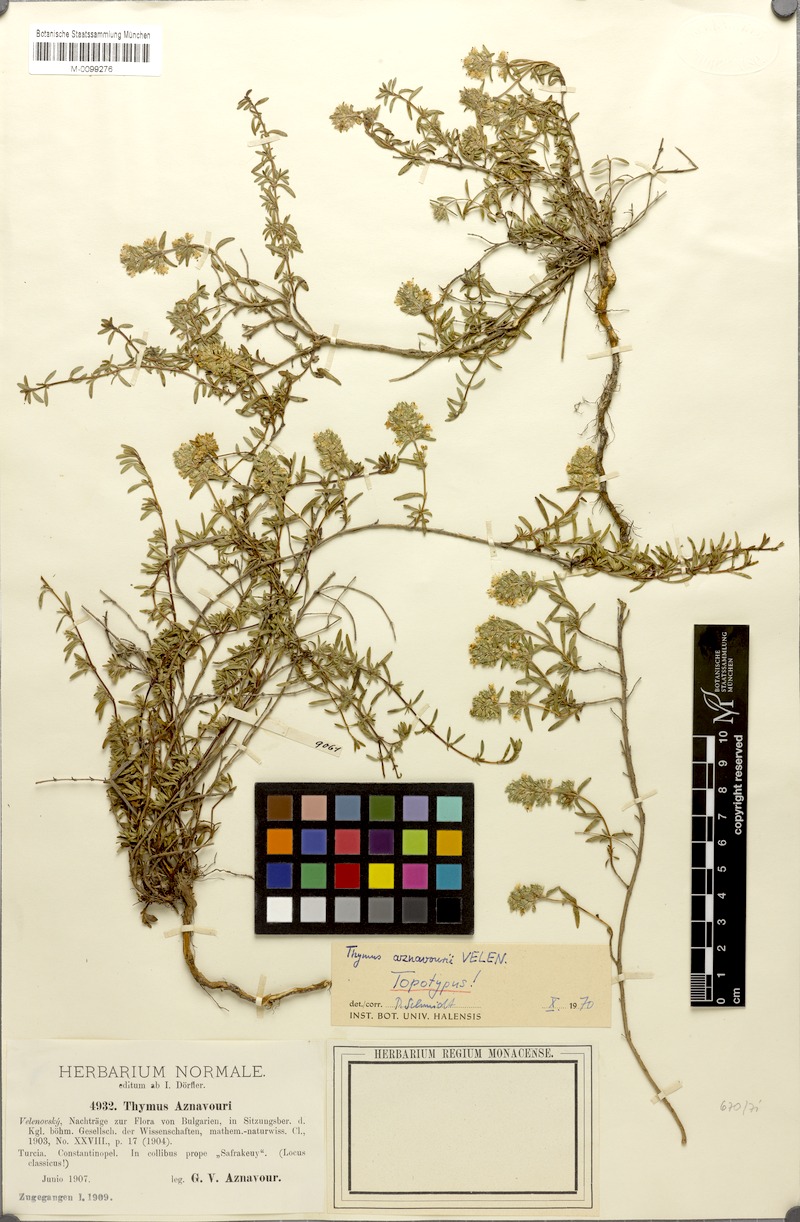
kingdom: Plantae
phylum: Tracheophyta
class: Magnoliopsida
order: Lamiales
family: Lamiaceae
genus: Thymus
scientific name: Thymus aznavourii
